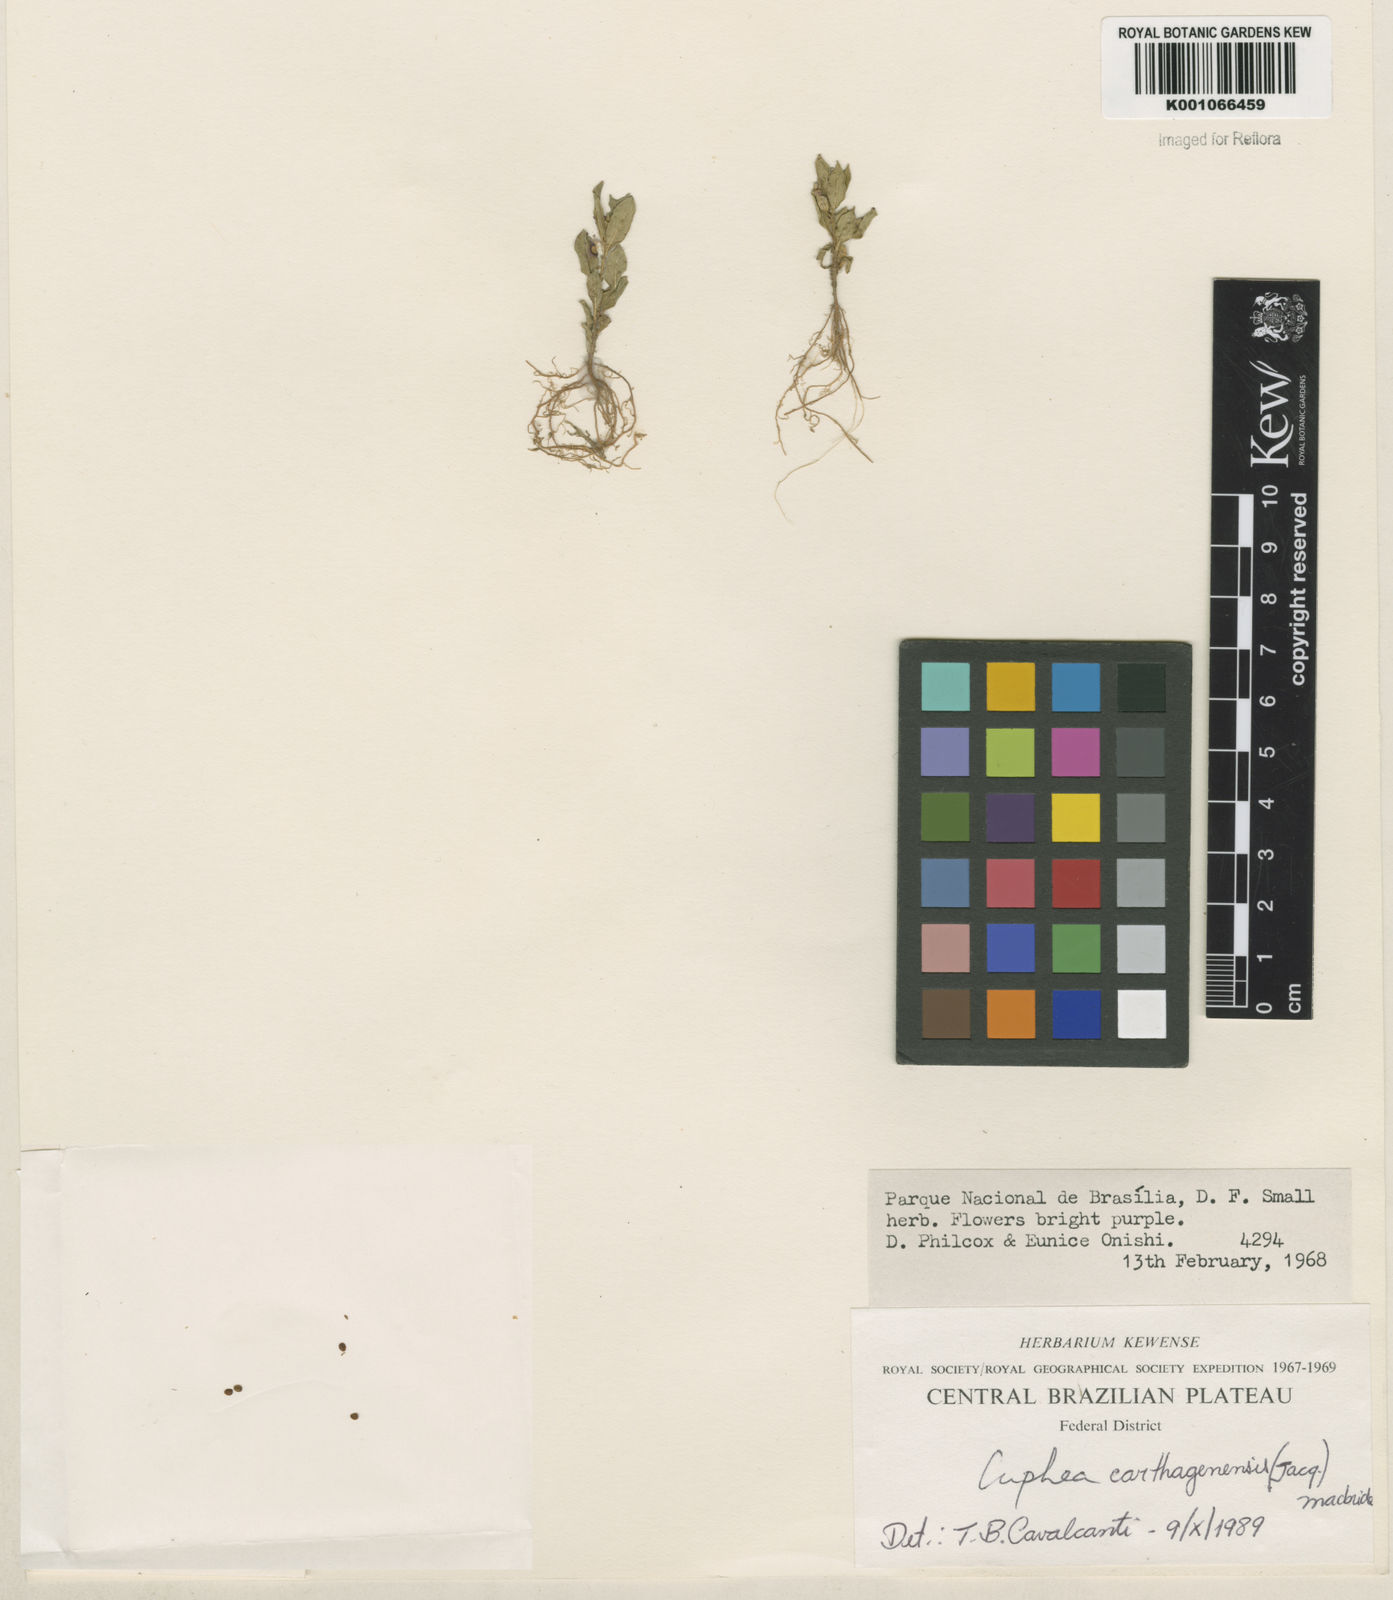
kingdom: Plantae
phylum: Tracheophyta
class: Magnoliopsida
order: Myrtales
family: Lythraceae
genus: Cuphea
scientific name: Cuphea carthagenensis
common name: Colombian waxweed
